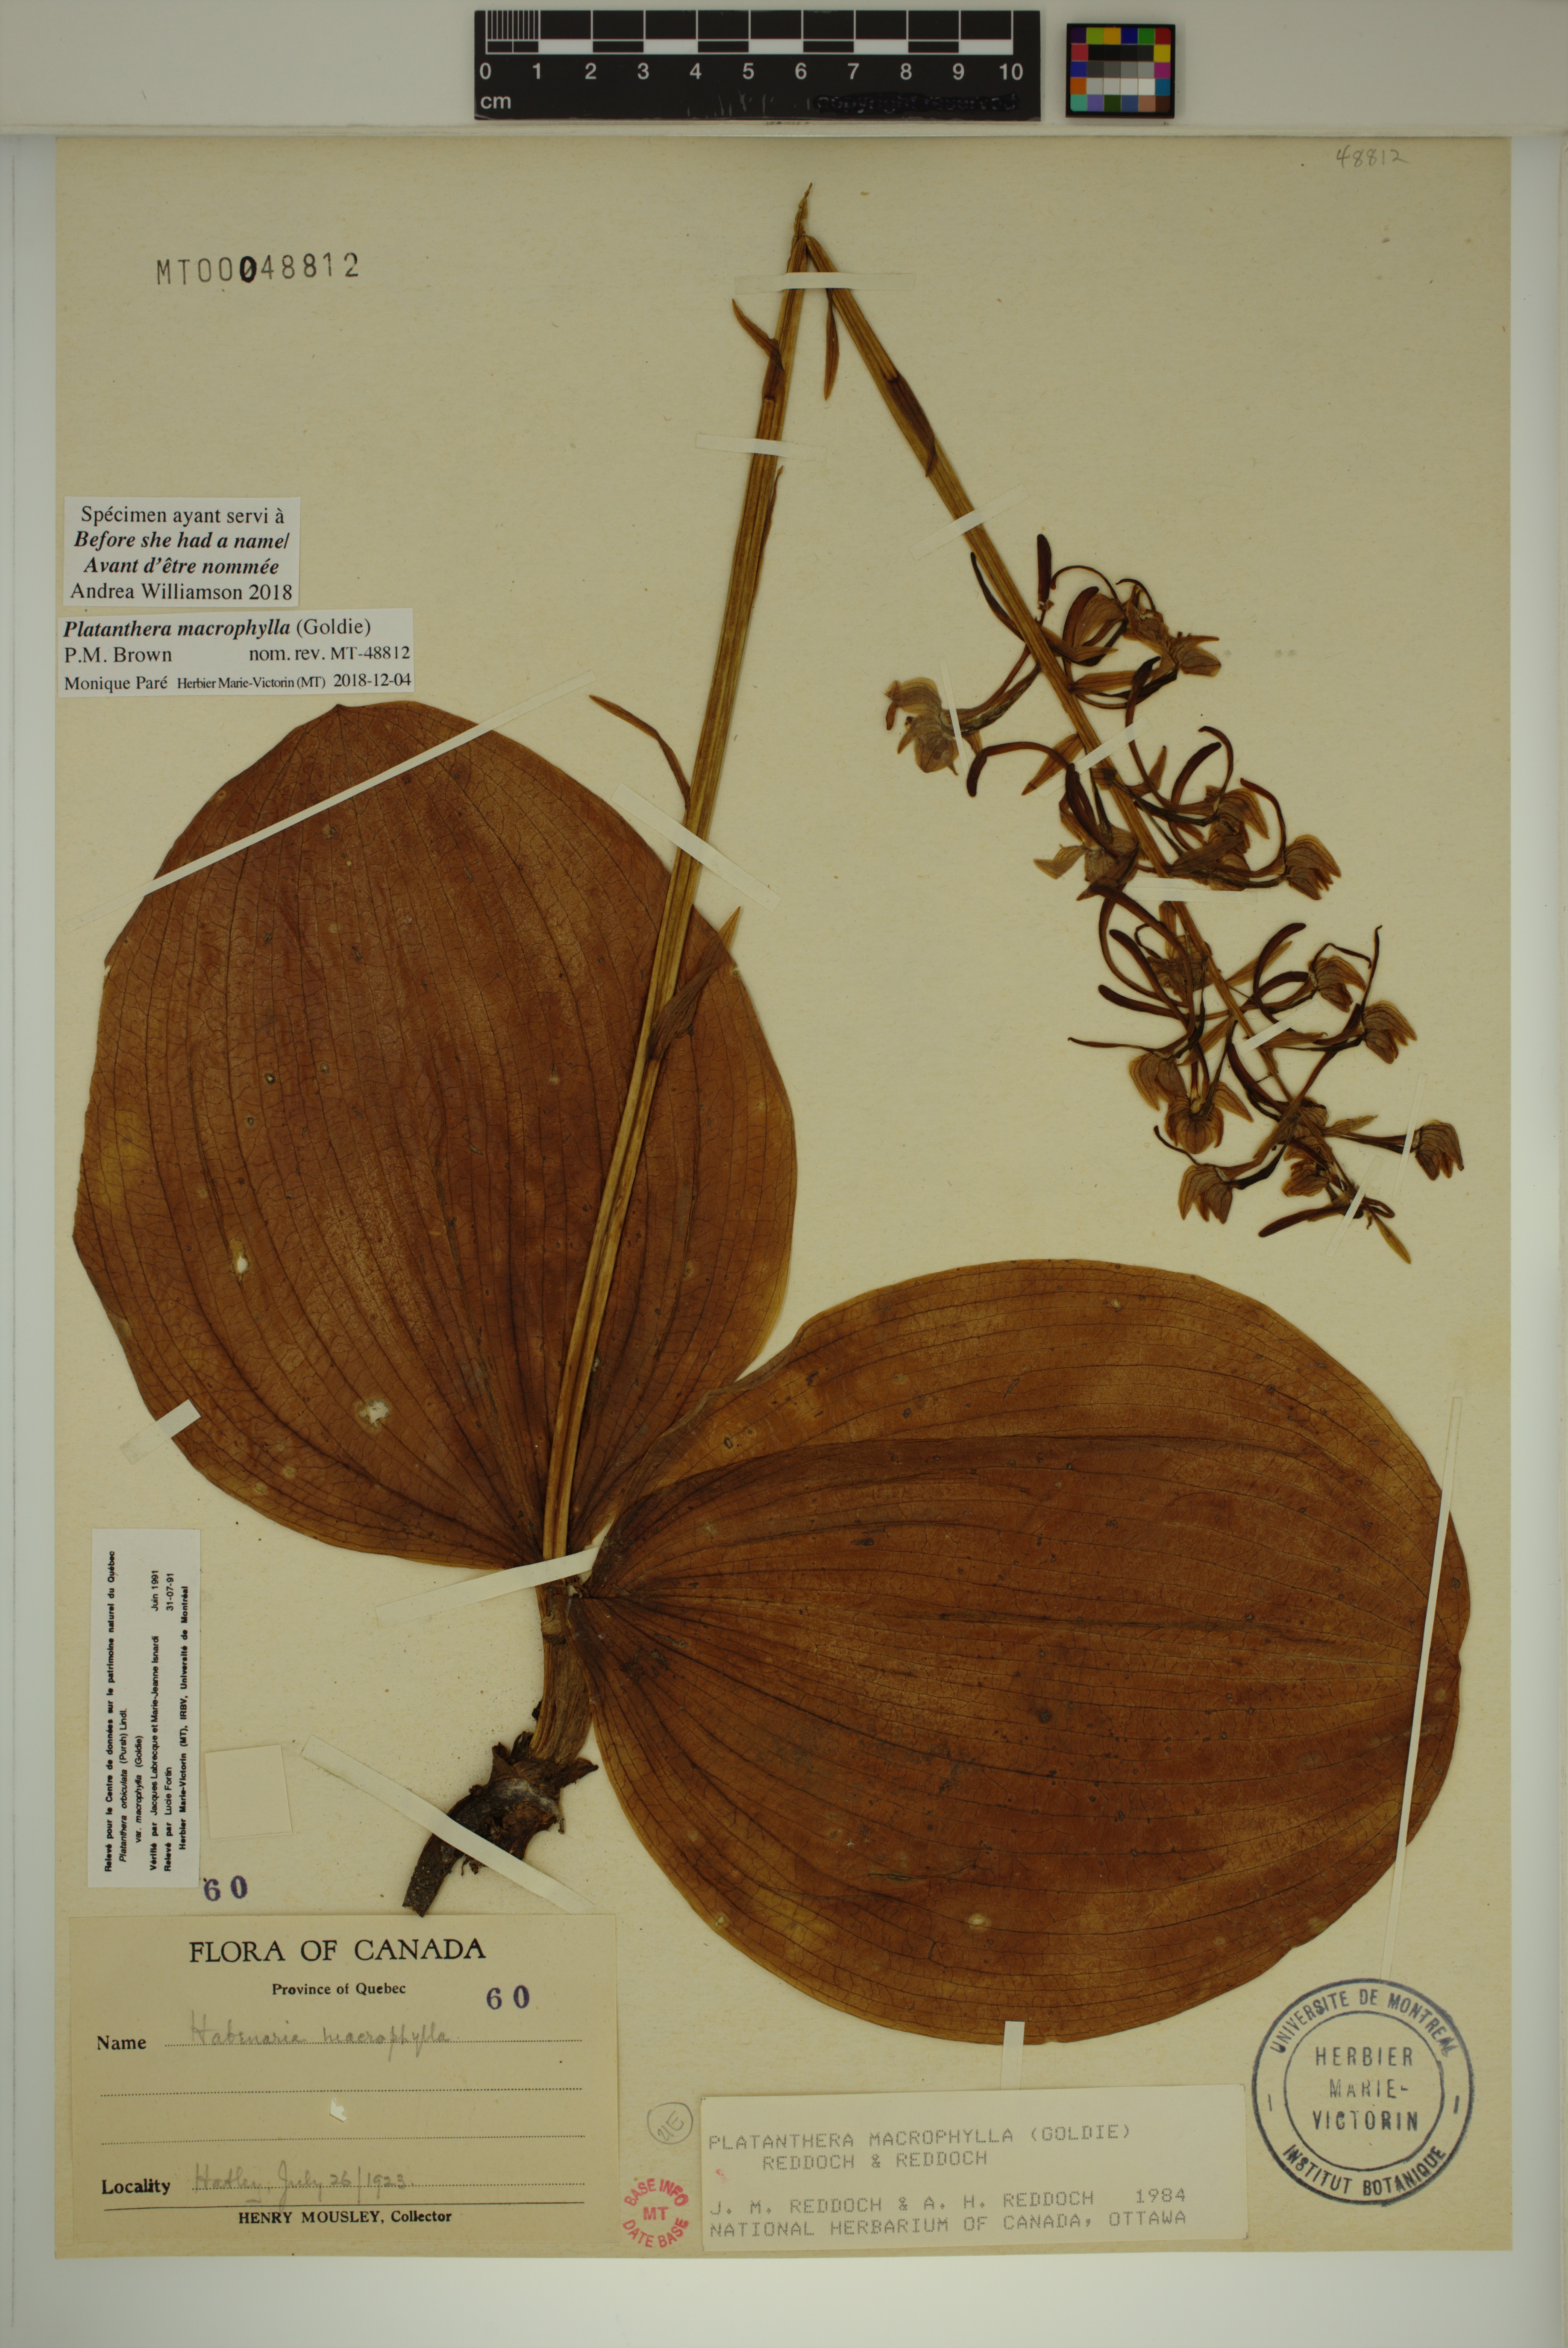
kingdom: Plantae
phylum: Tracheophyta
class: Liliopsida
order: Asparagales
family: Orchidaceae
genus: Platanthera
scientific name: Platanthera orbiculata
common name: Large round-leaved orchid
